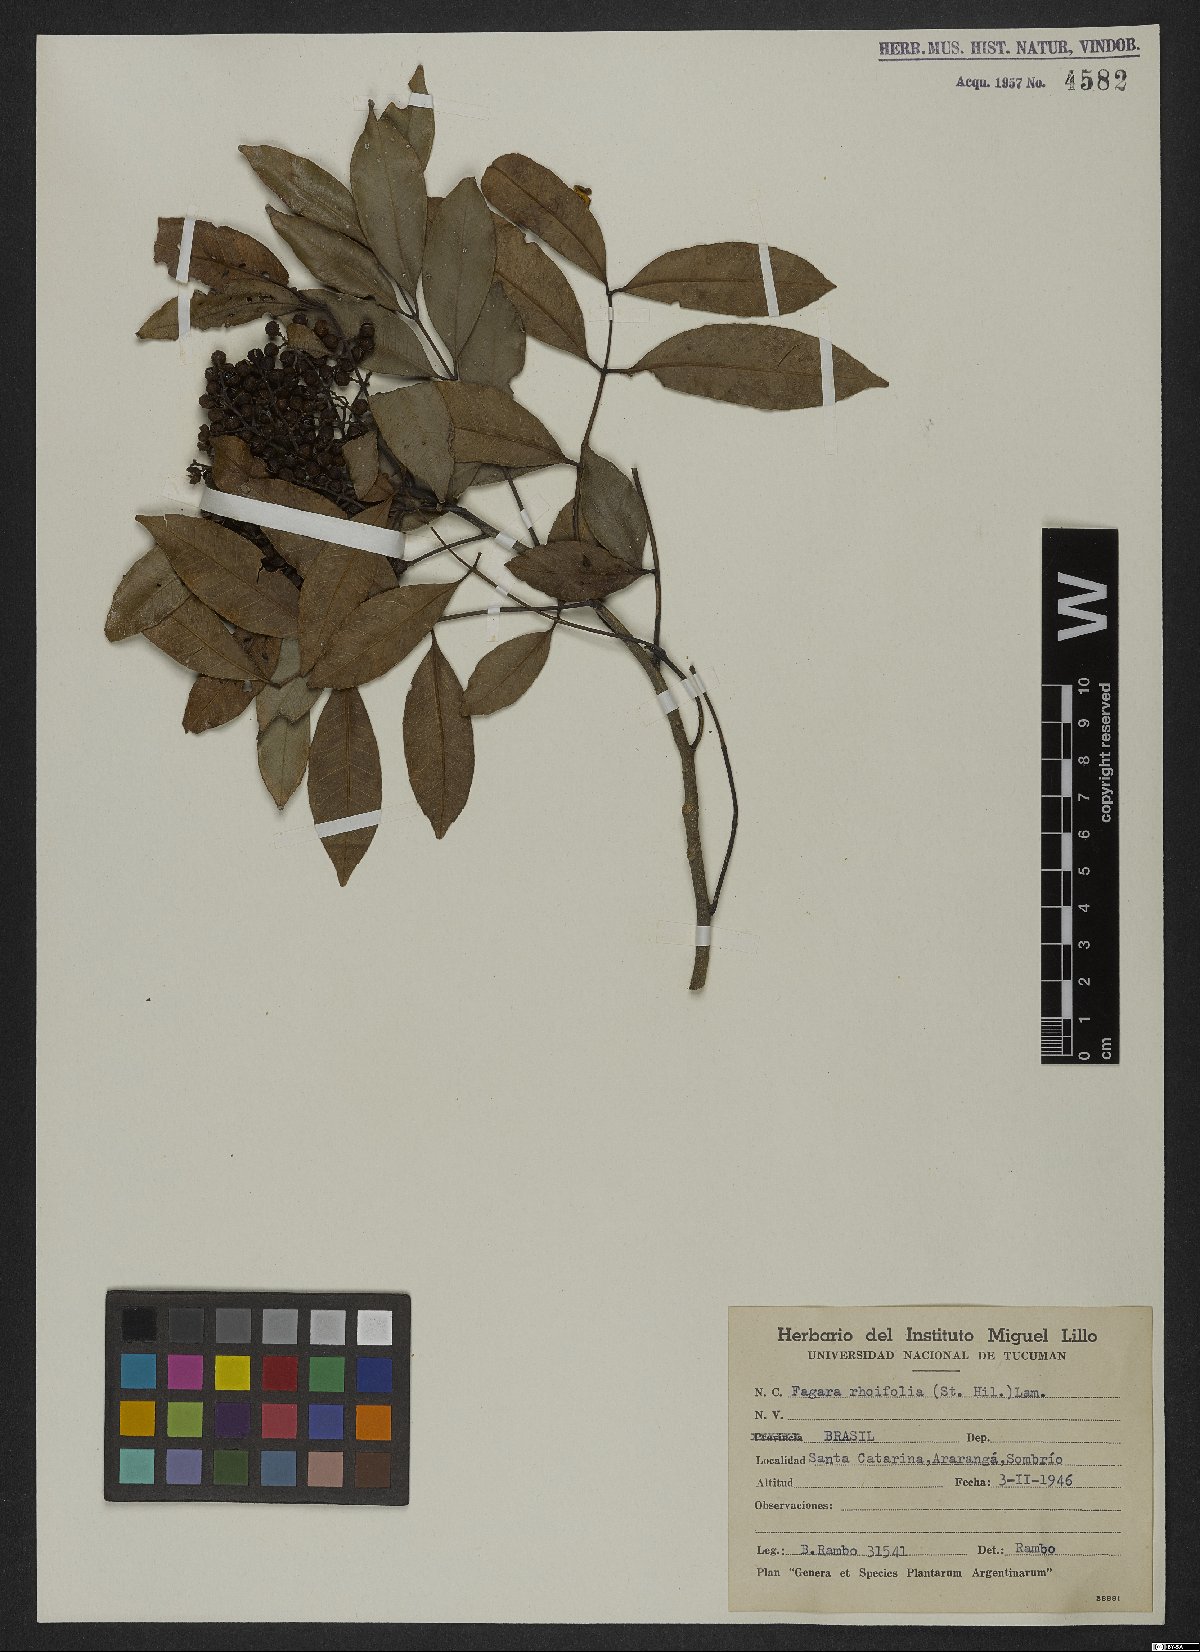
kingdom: Plantae
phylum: Tracheophyta
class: Magnoliopsida
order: Sapindales
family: Rutaceae
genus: Zanthoxylum
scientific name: Zanthoxylum rhoifolium
